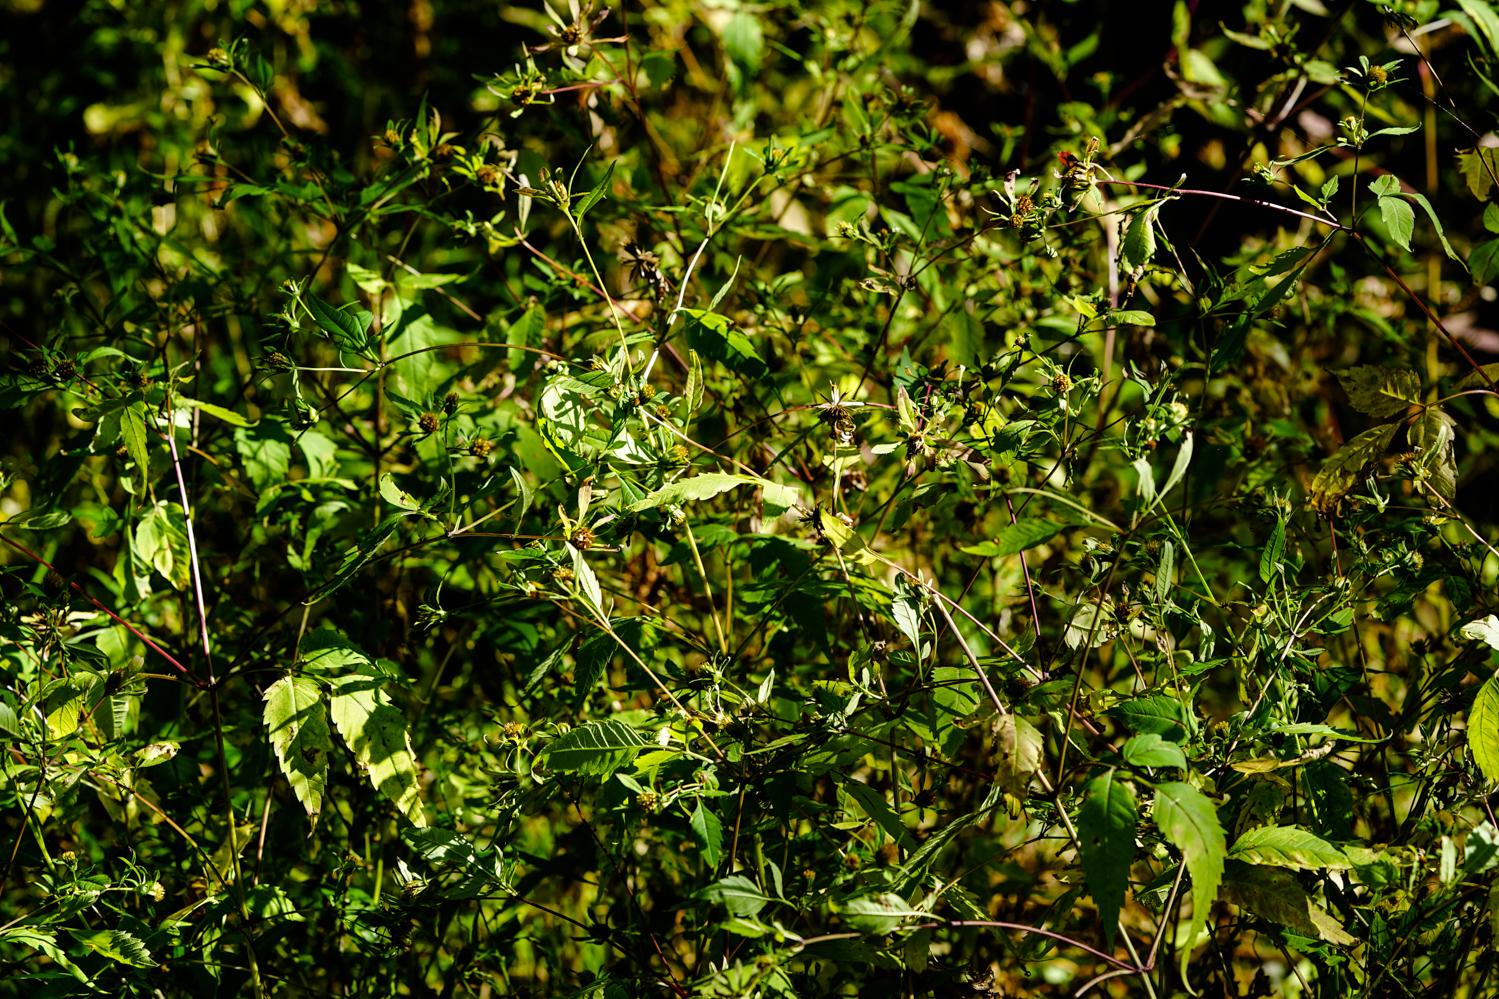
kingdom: Plantae
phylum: Tracheophyta
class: Magnoliopsida
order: Asterales
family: Asteraceae
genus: Bidens
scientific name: Bidens tripartita
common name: Trifid bur-marigold
